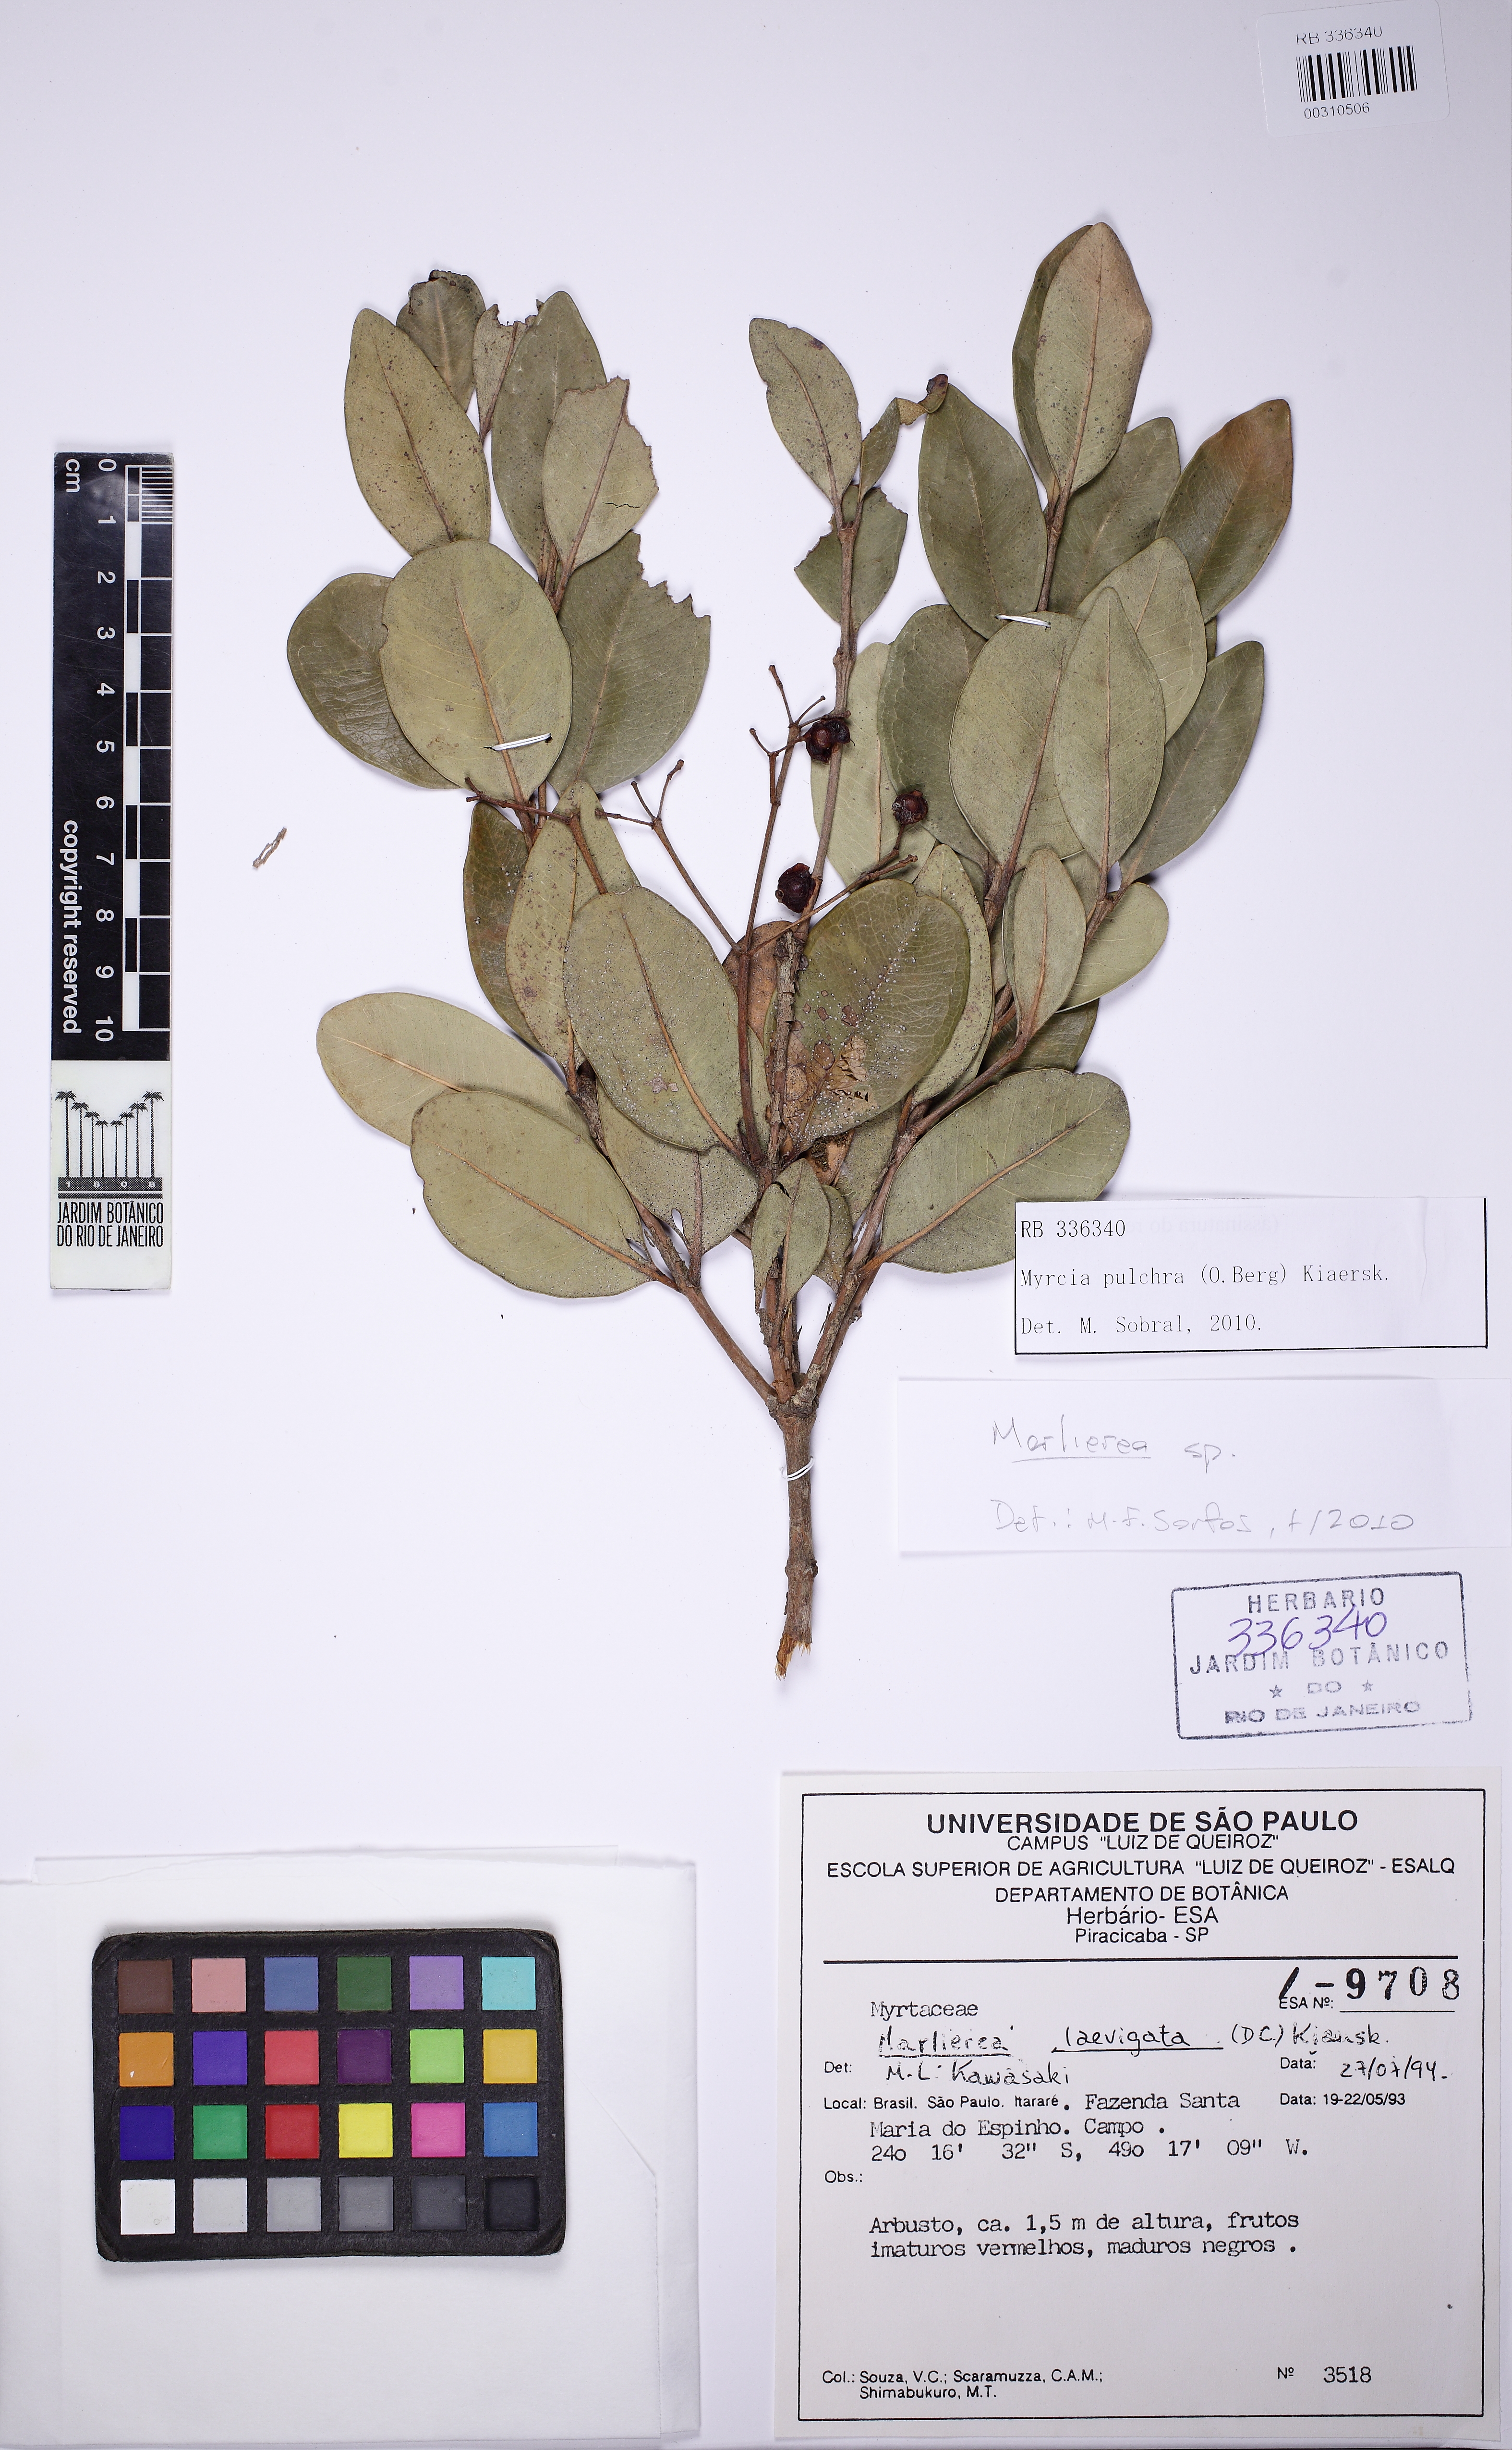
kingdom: Plantae
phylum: Tracheophyta
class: Magnoliopsida
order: Myrtales
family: Myrtaceae
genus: Myrcia
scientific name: Myrcia pulchra
